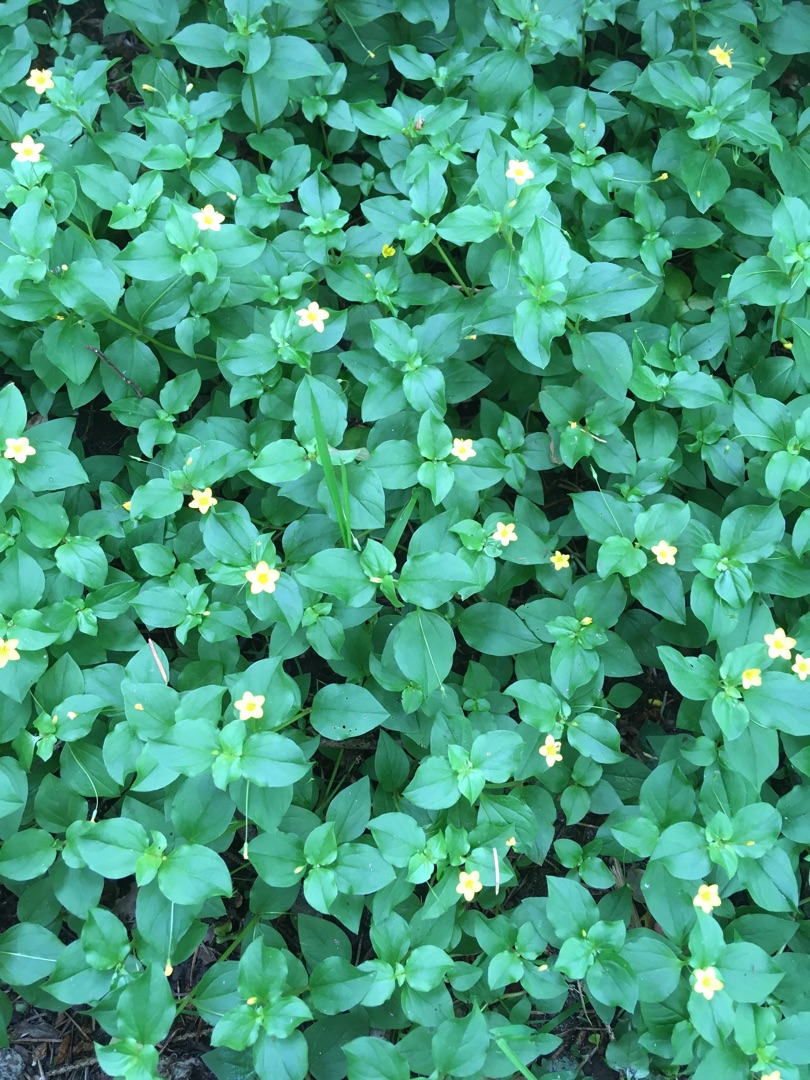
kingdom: Plantae
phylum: Tracheophyta
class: Magnoliopsida
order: Ericales
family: Primulaceae
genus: Lysimachia
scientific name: Lysimachia nemorum
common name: Lund-fredløs
